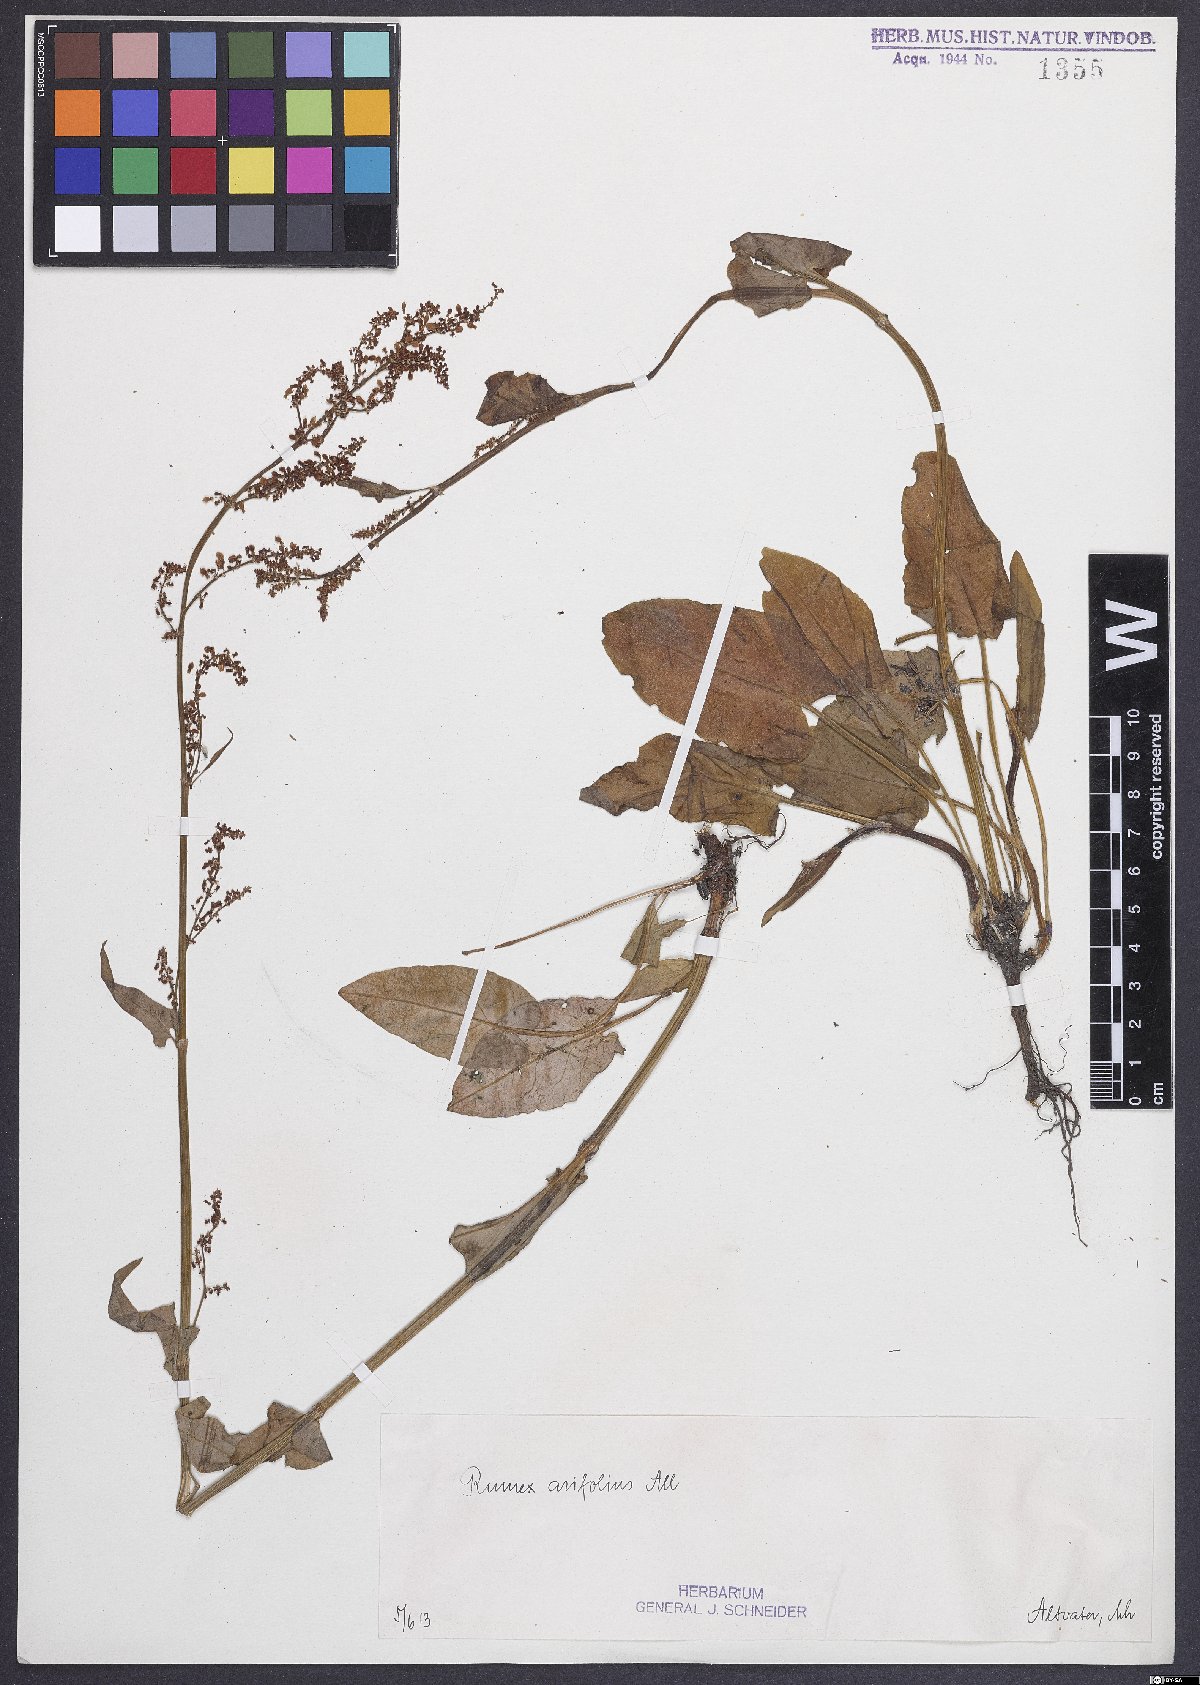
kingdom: Plantae
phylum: Tracheophyta
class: Magnoliopsida
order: Caryophyllales
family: Polygonaceae
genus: Rumex
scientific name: Rumex arifolius
